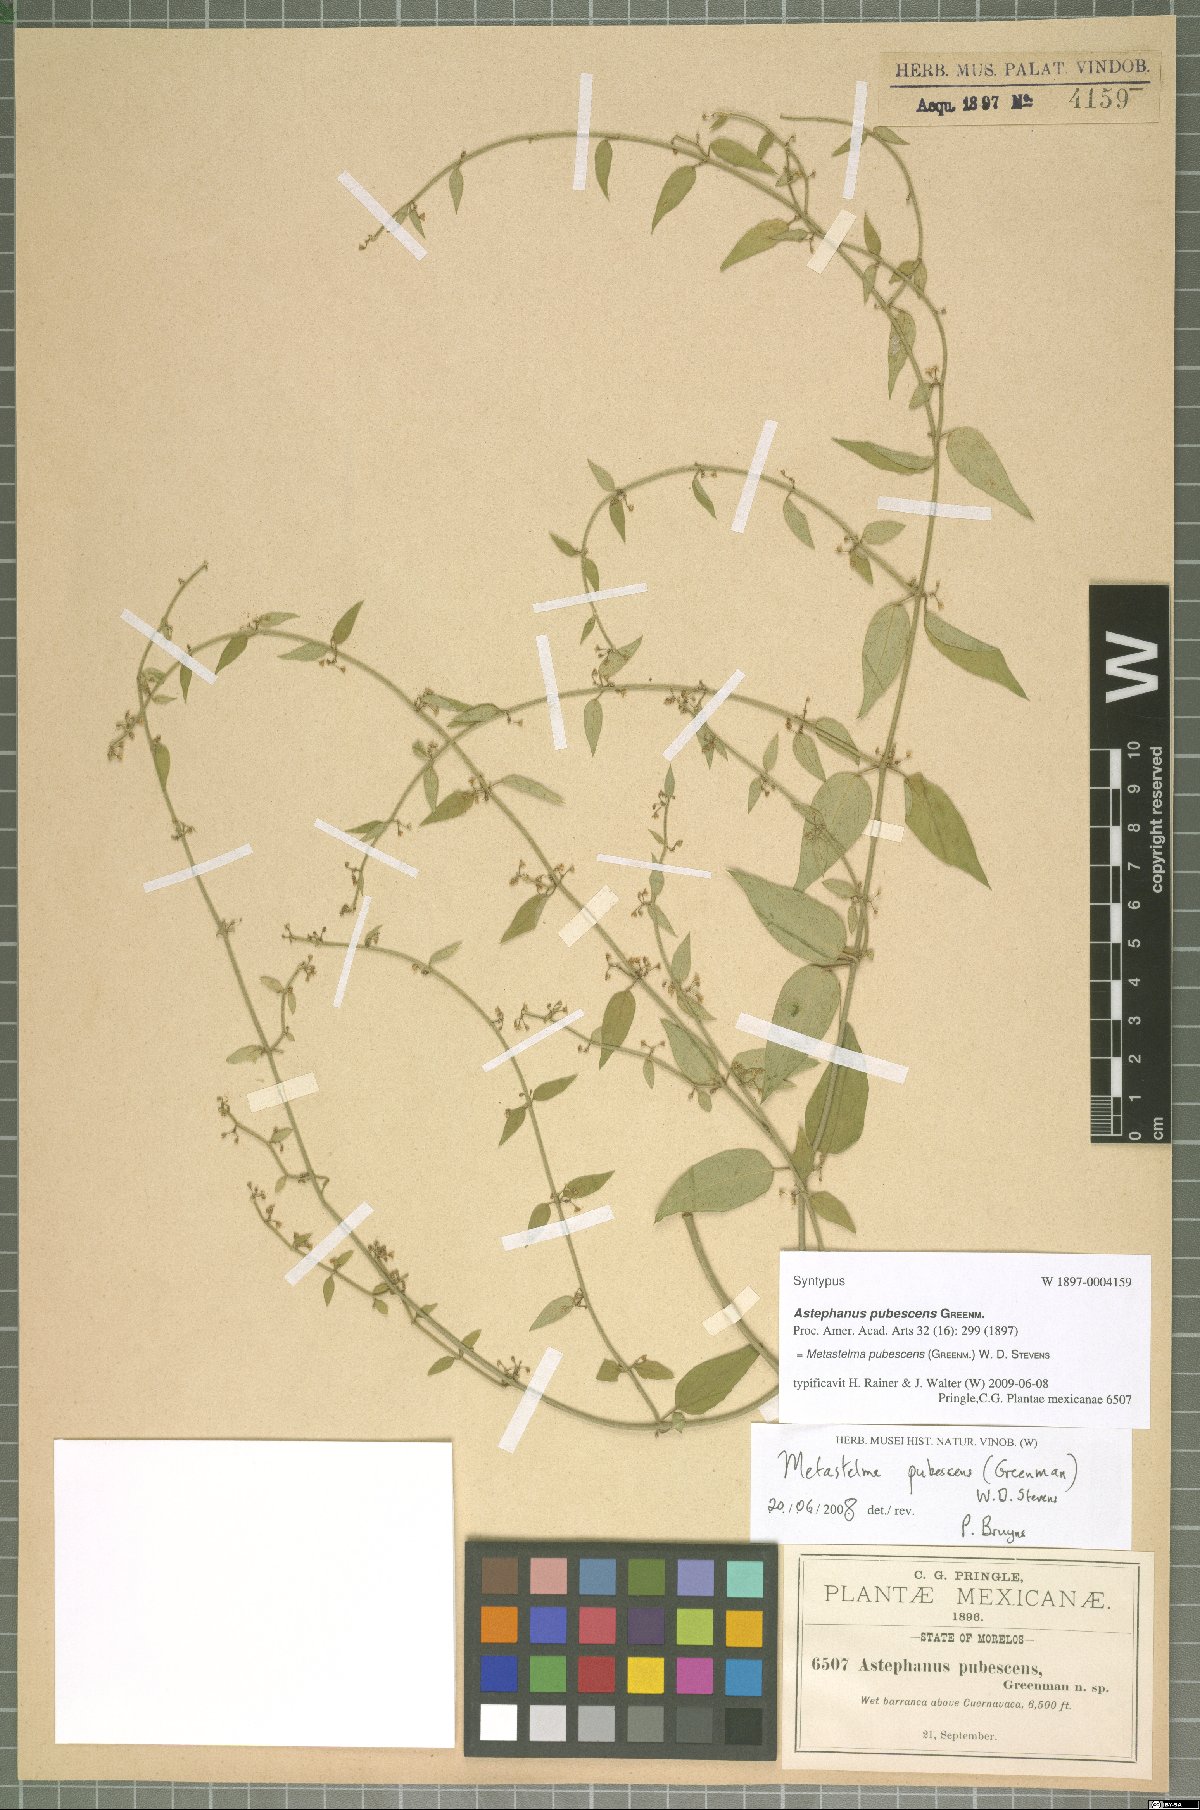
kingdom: Plantae
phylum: Tracheophyta
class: Magnoliopsida
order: Gentianales
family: Apocynaceae
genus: Orthosia
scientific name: Orthosia pubescens
